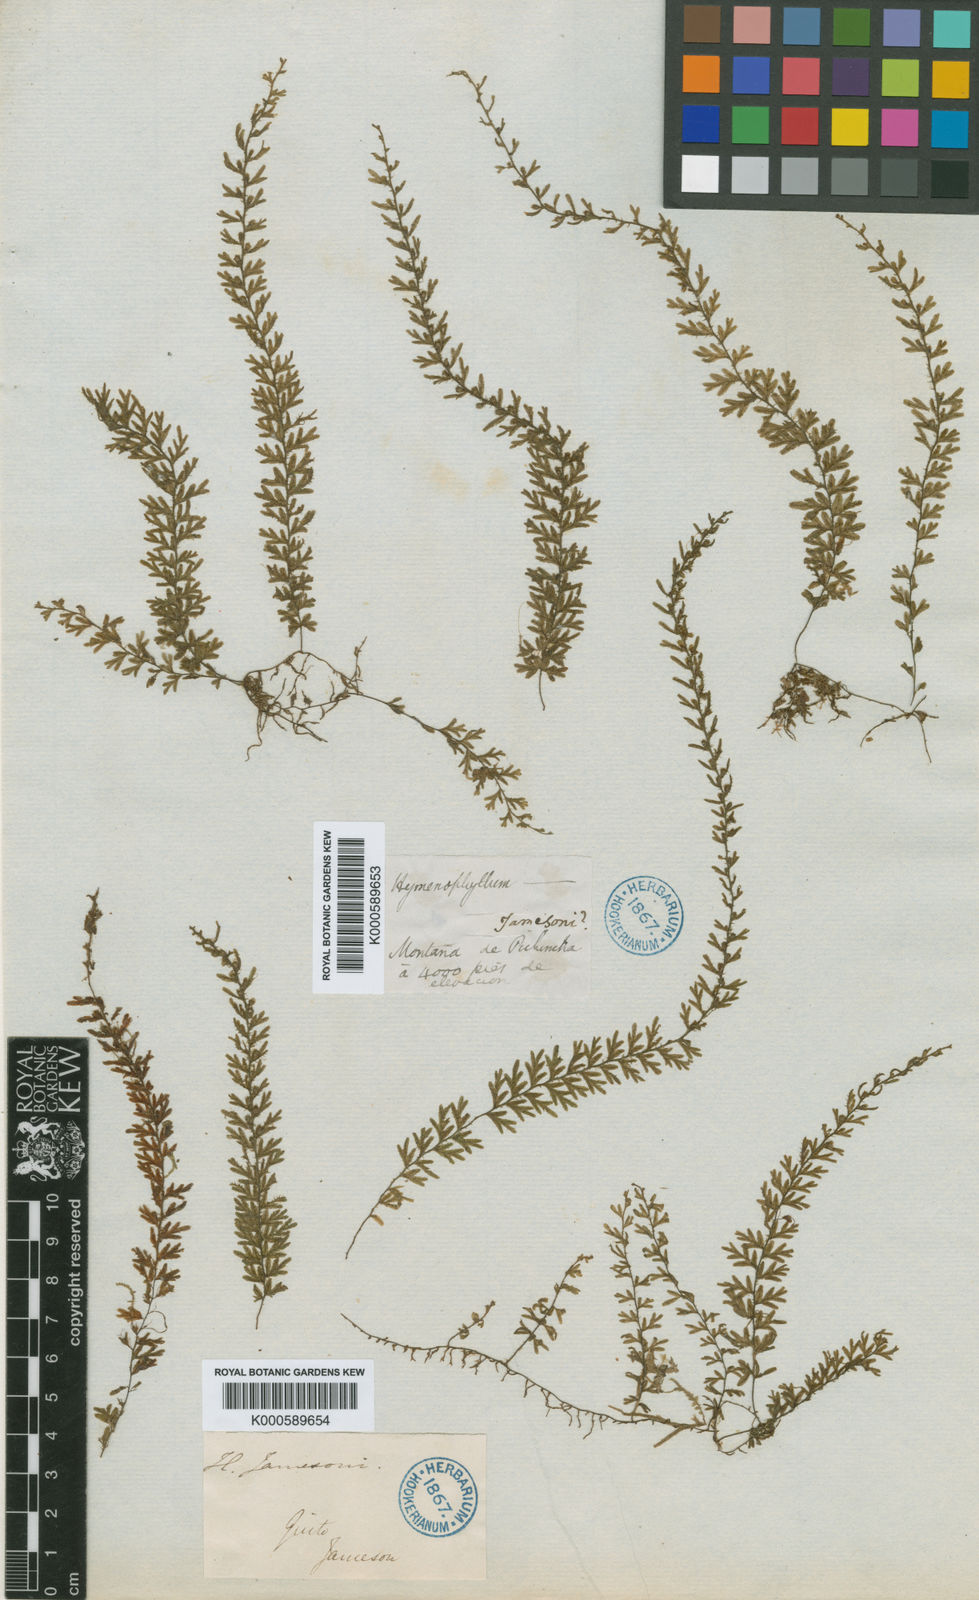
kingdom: Plantae
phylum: Tracheophyta
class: Polypodiopsida
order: Hymenophyllales
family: Hymenophyllaceae
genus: Hymenophyllum
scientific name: Hymenophyllum jamesonii
